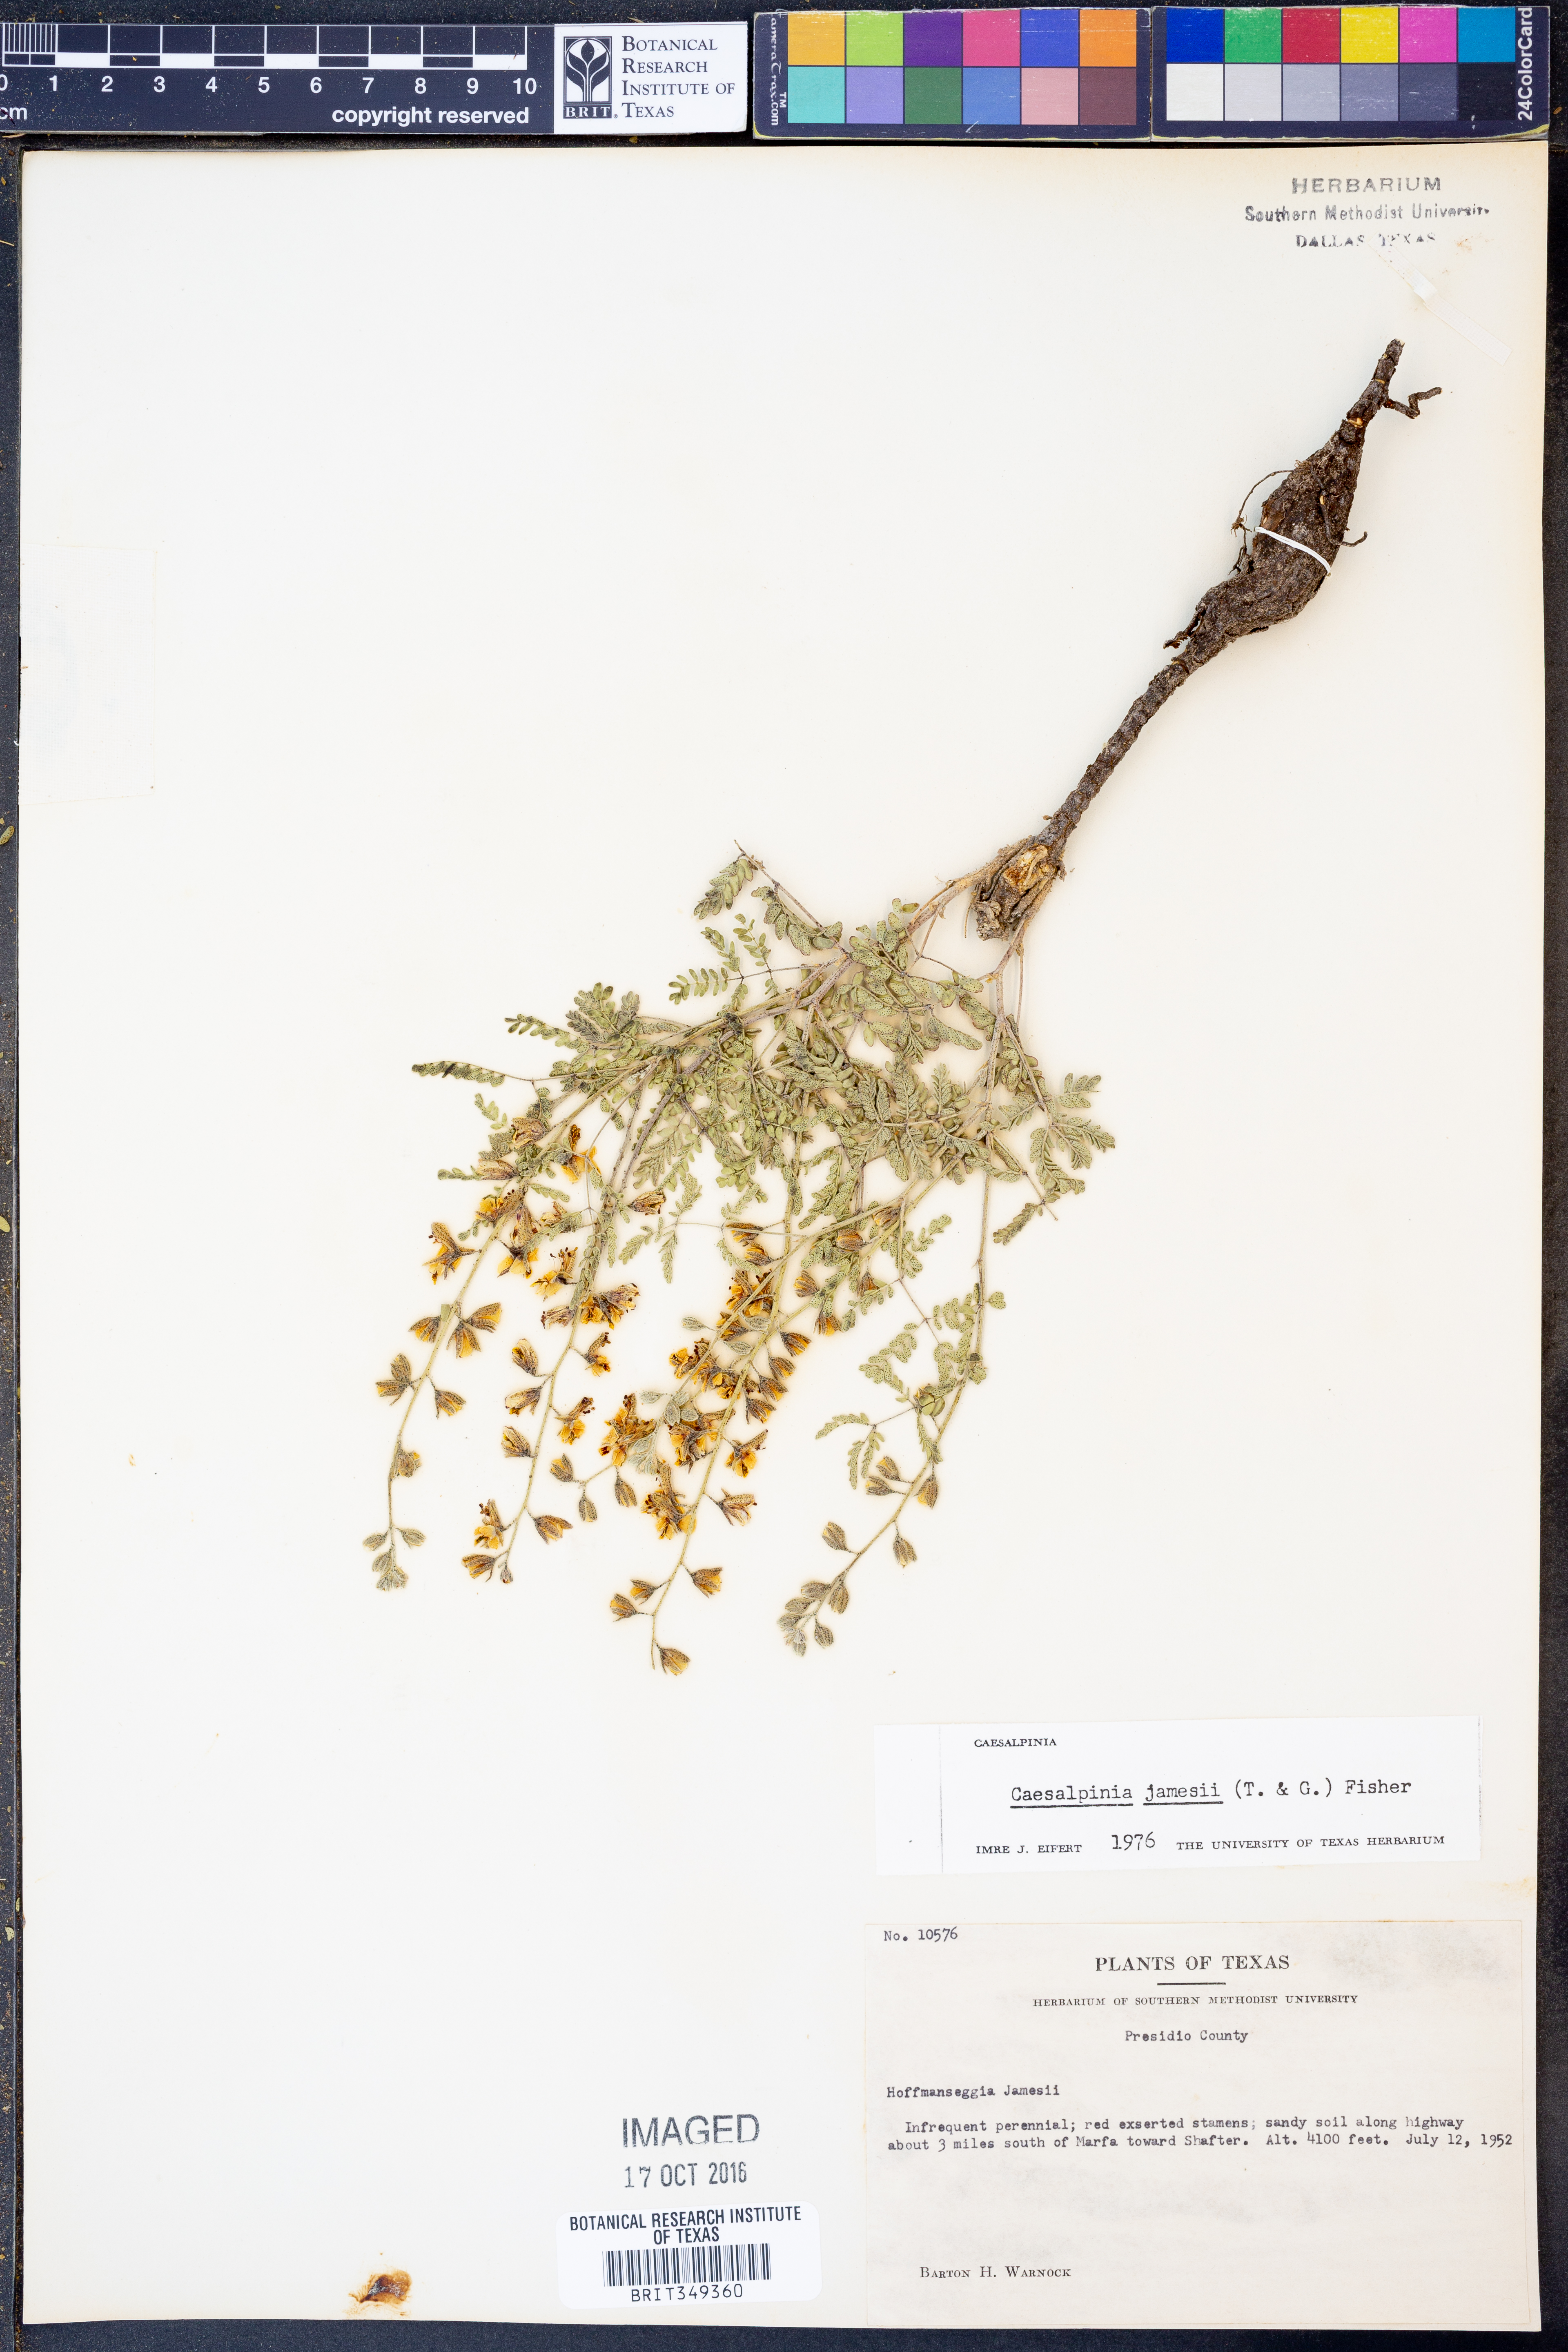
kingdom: Plantae
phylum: Tracheophyta
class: Magnoliopsida
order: Fabales
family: Fabaceae
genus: Pomaria
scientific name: Pomaria jamesii
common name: James' caesalpinia
